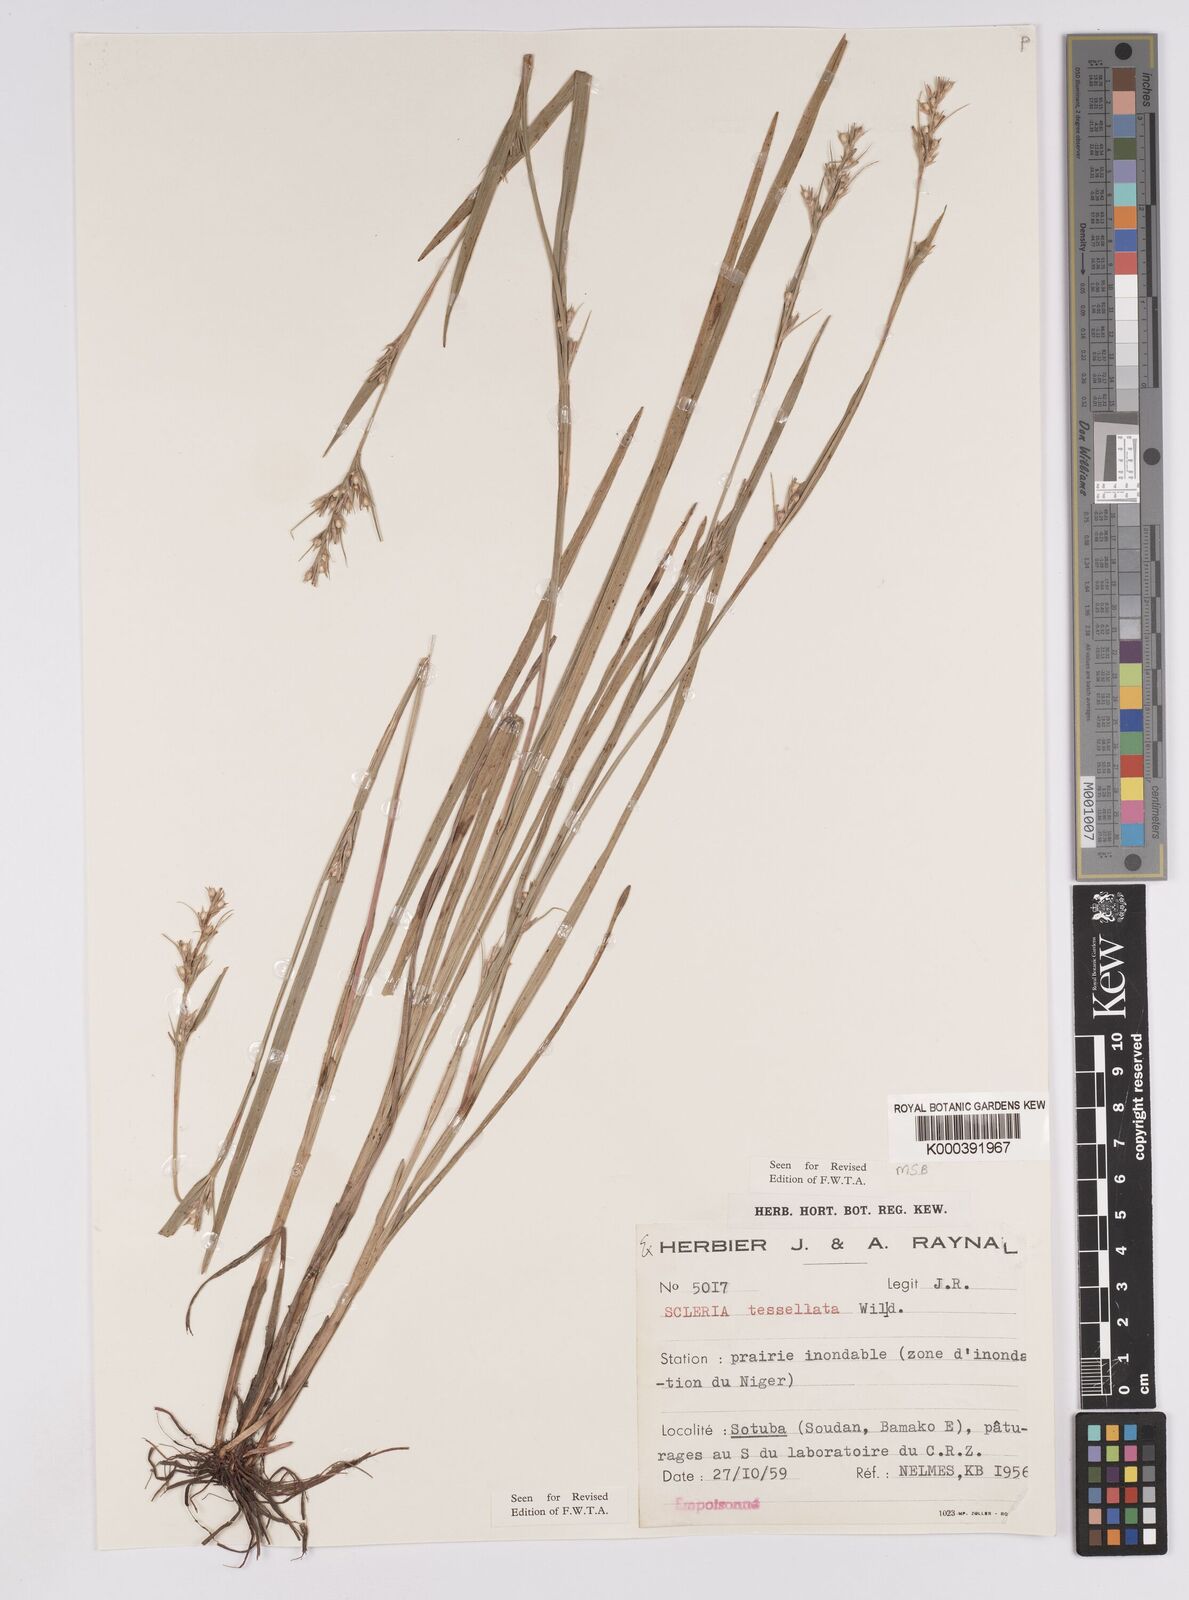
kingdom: Plantae
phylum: Tracheophyta
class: Liliopsida
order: Poales
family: Cyperaceae
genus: Scleria
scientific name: Scleria tessellata
